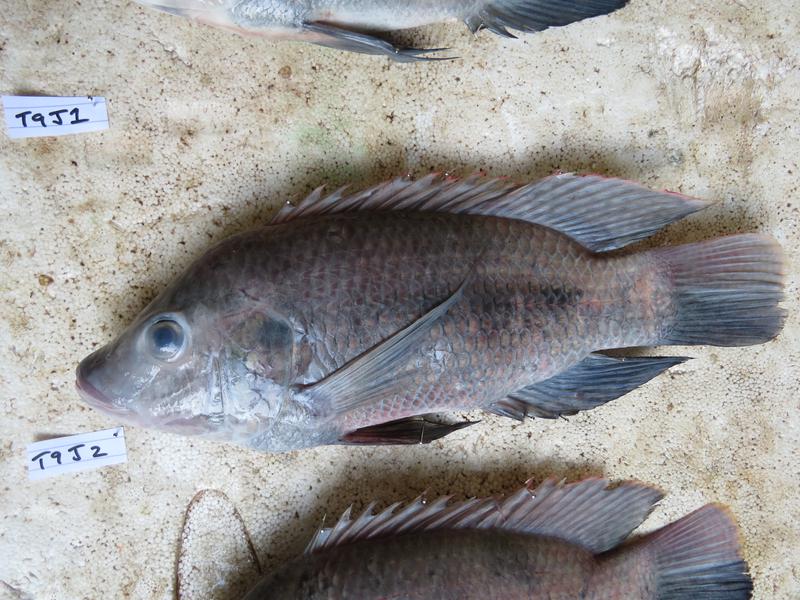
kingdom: Animalia
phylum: Chordata
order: Perciformes
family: Cichlidae
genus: Oreochromis
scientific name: Oreochromis urolepis
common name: Wami tilapia
